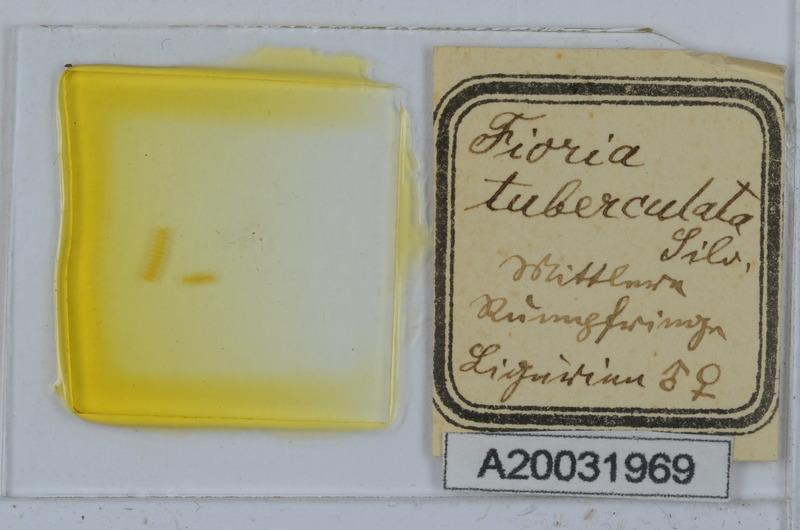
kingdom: Animalia
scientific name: Animalia
